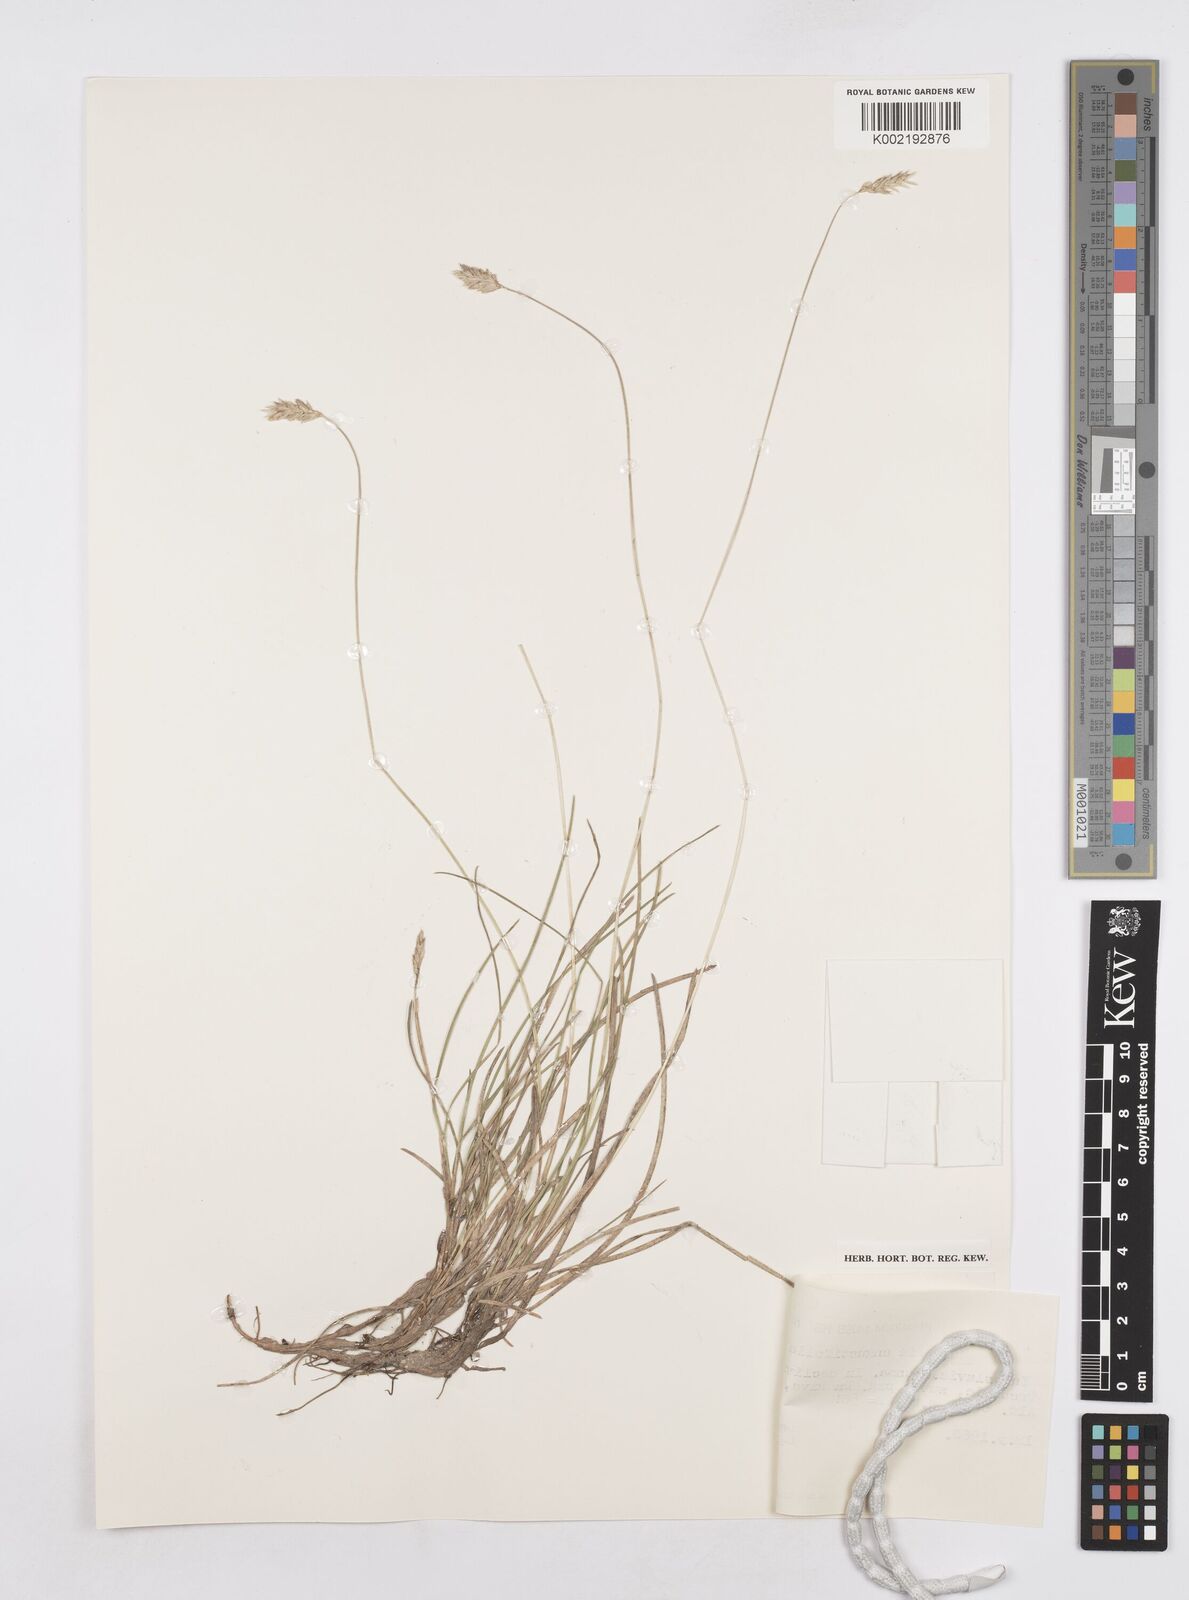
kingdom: Plantae
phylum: Tracheophyta
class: Liliopsida
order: Poales
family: Poaceae
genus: Sesleria
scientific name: Sesleria angustifolia
